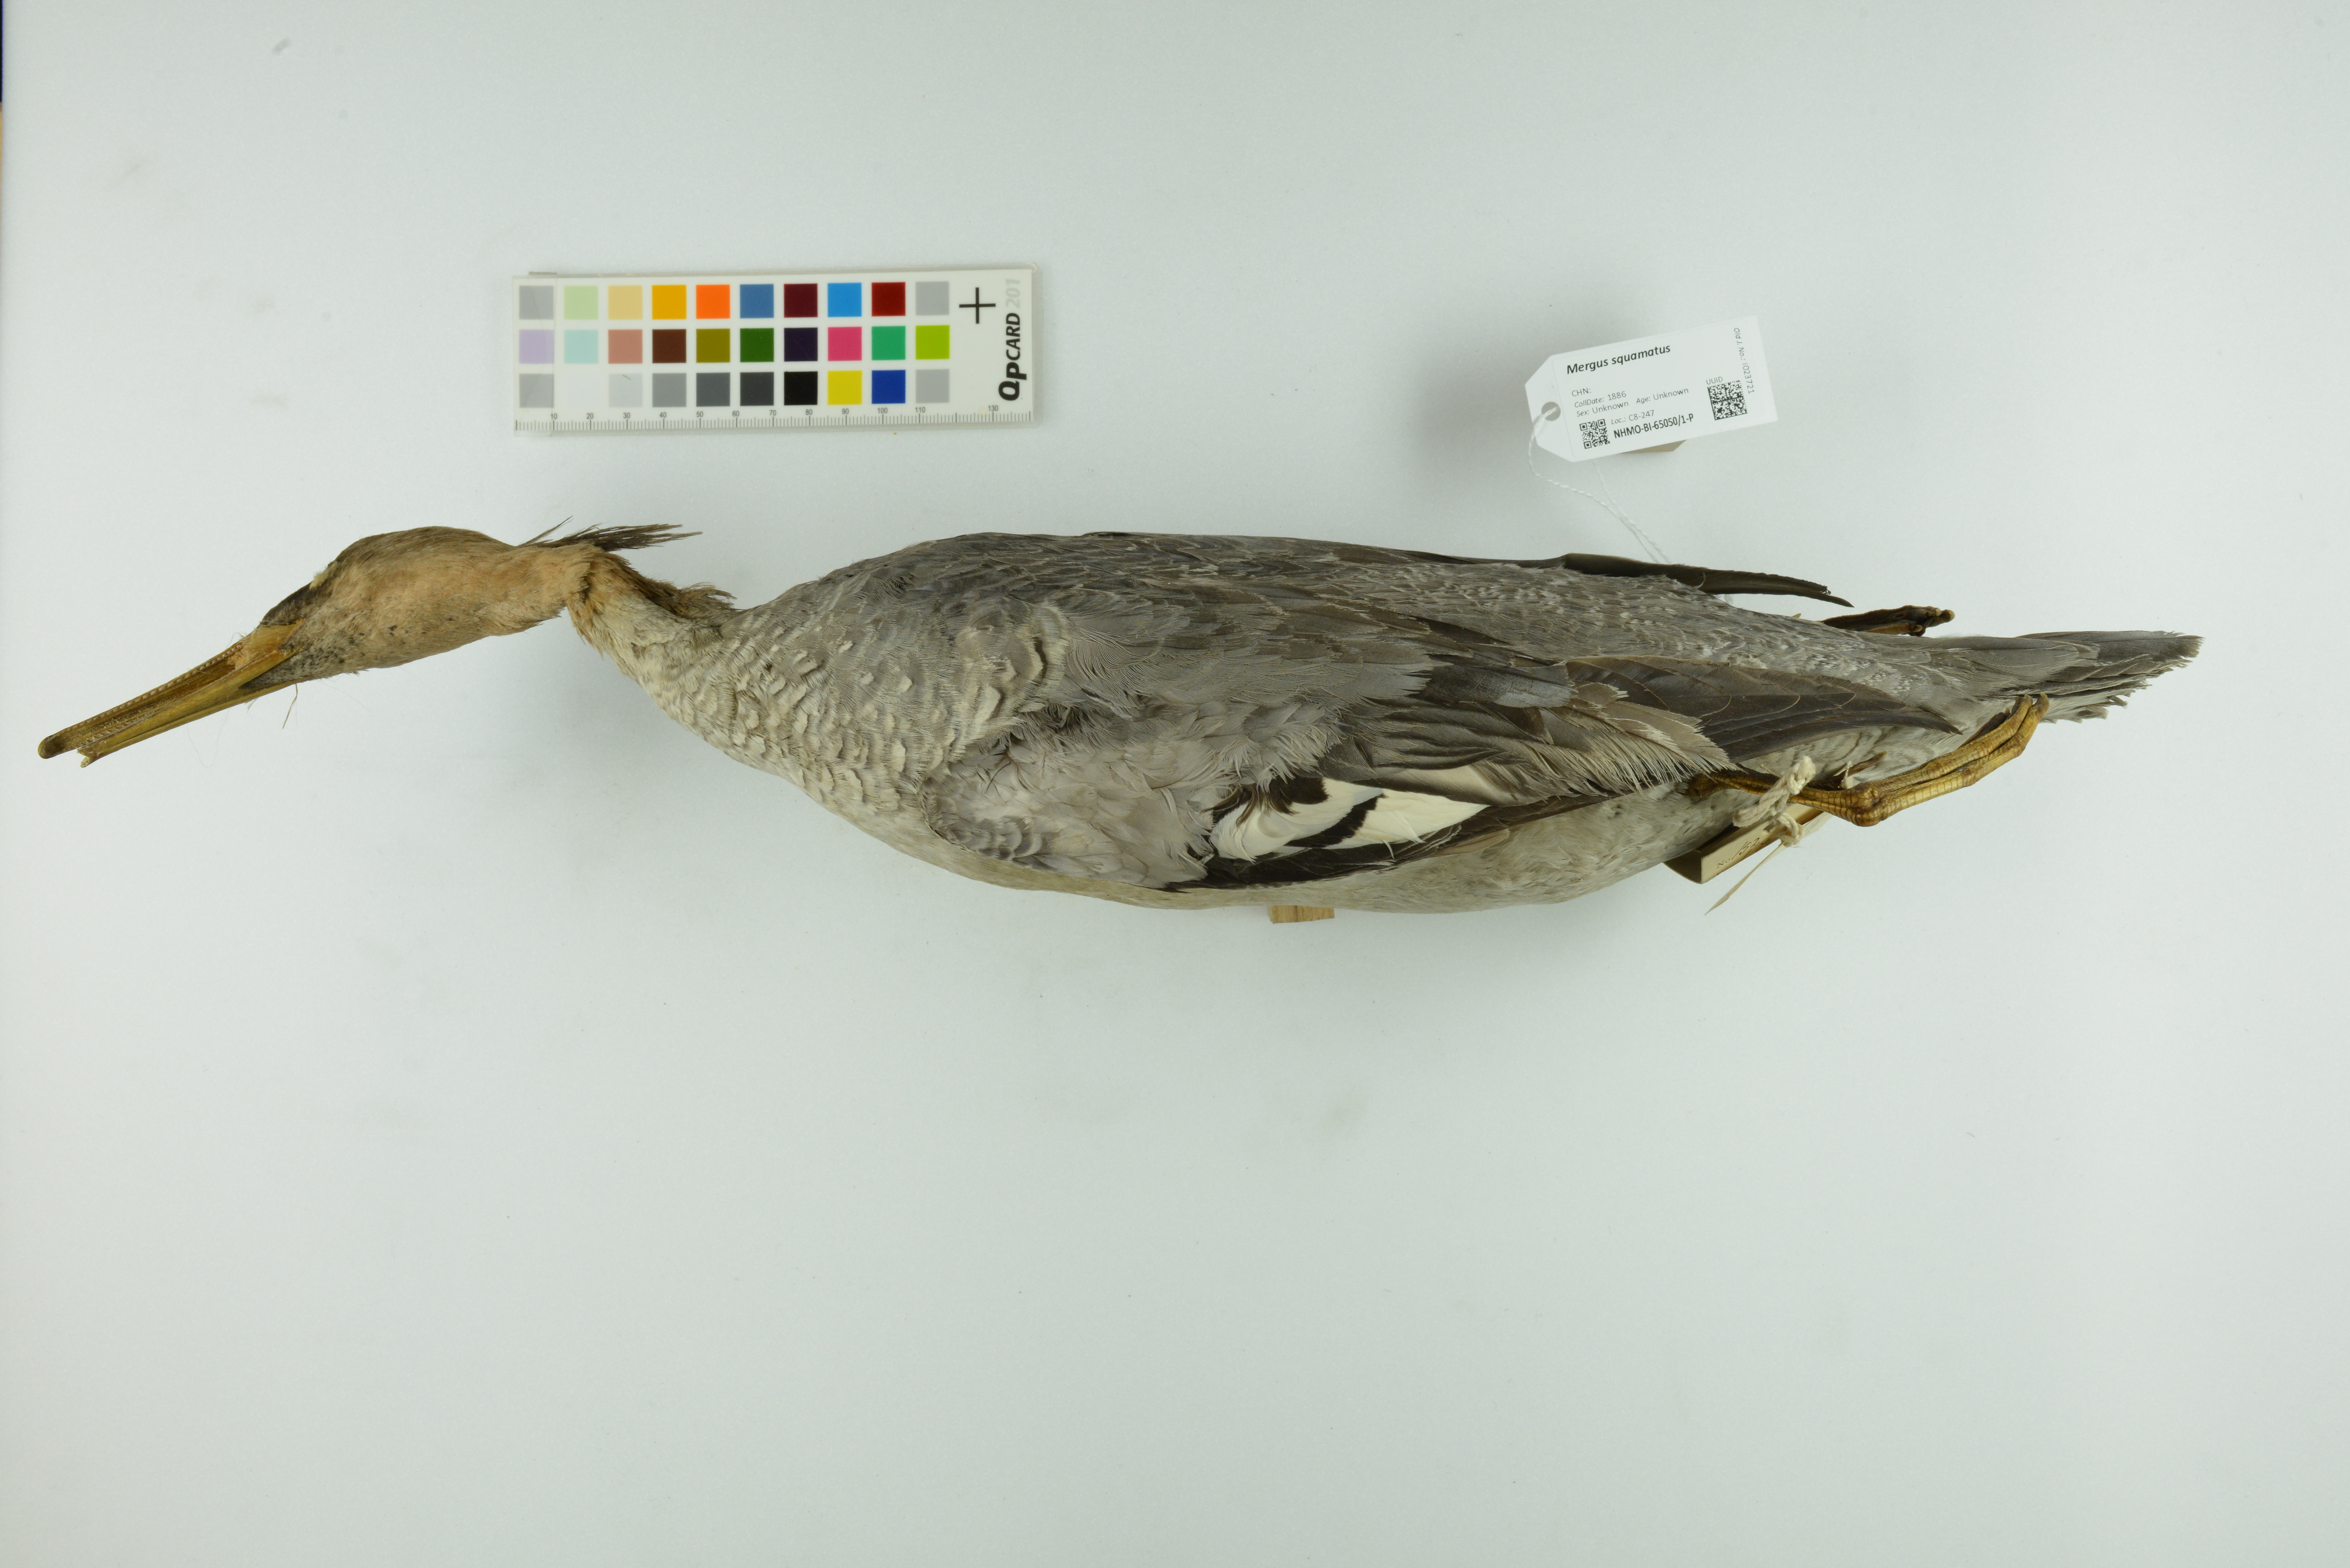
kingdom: Animalia
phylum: Chordata
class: Aves
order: Anseriformes
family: Anatidae
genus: Mergus
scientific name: Mergus squamatus
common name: Scaly-sided merganser
